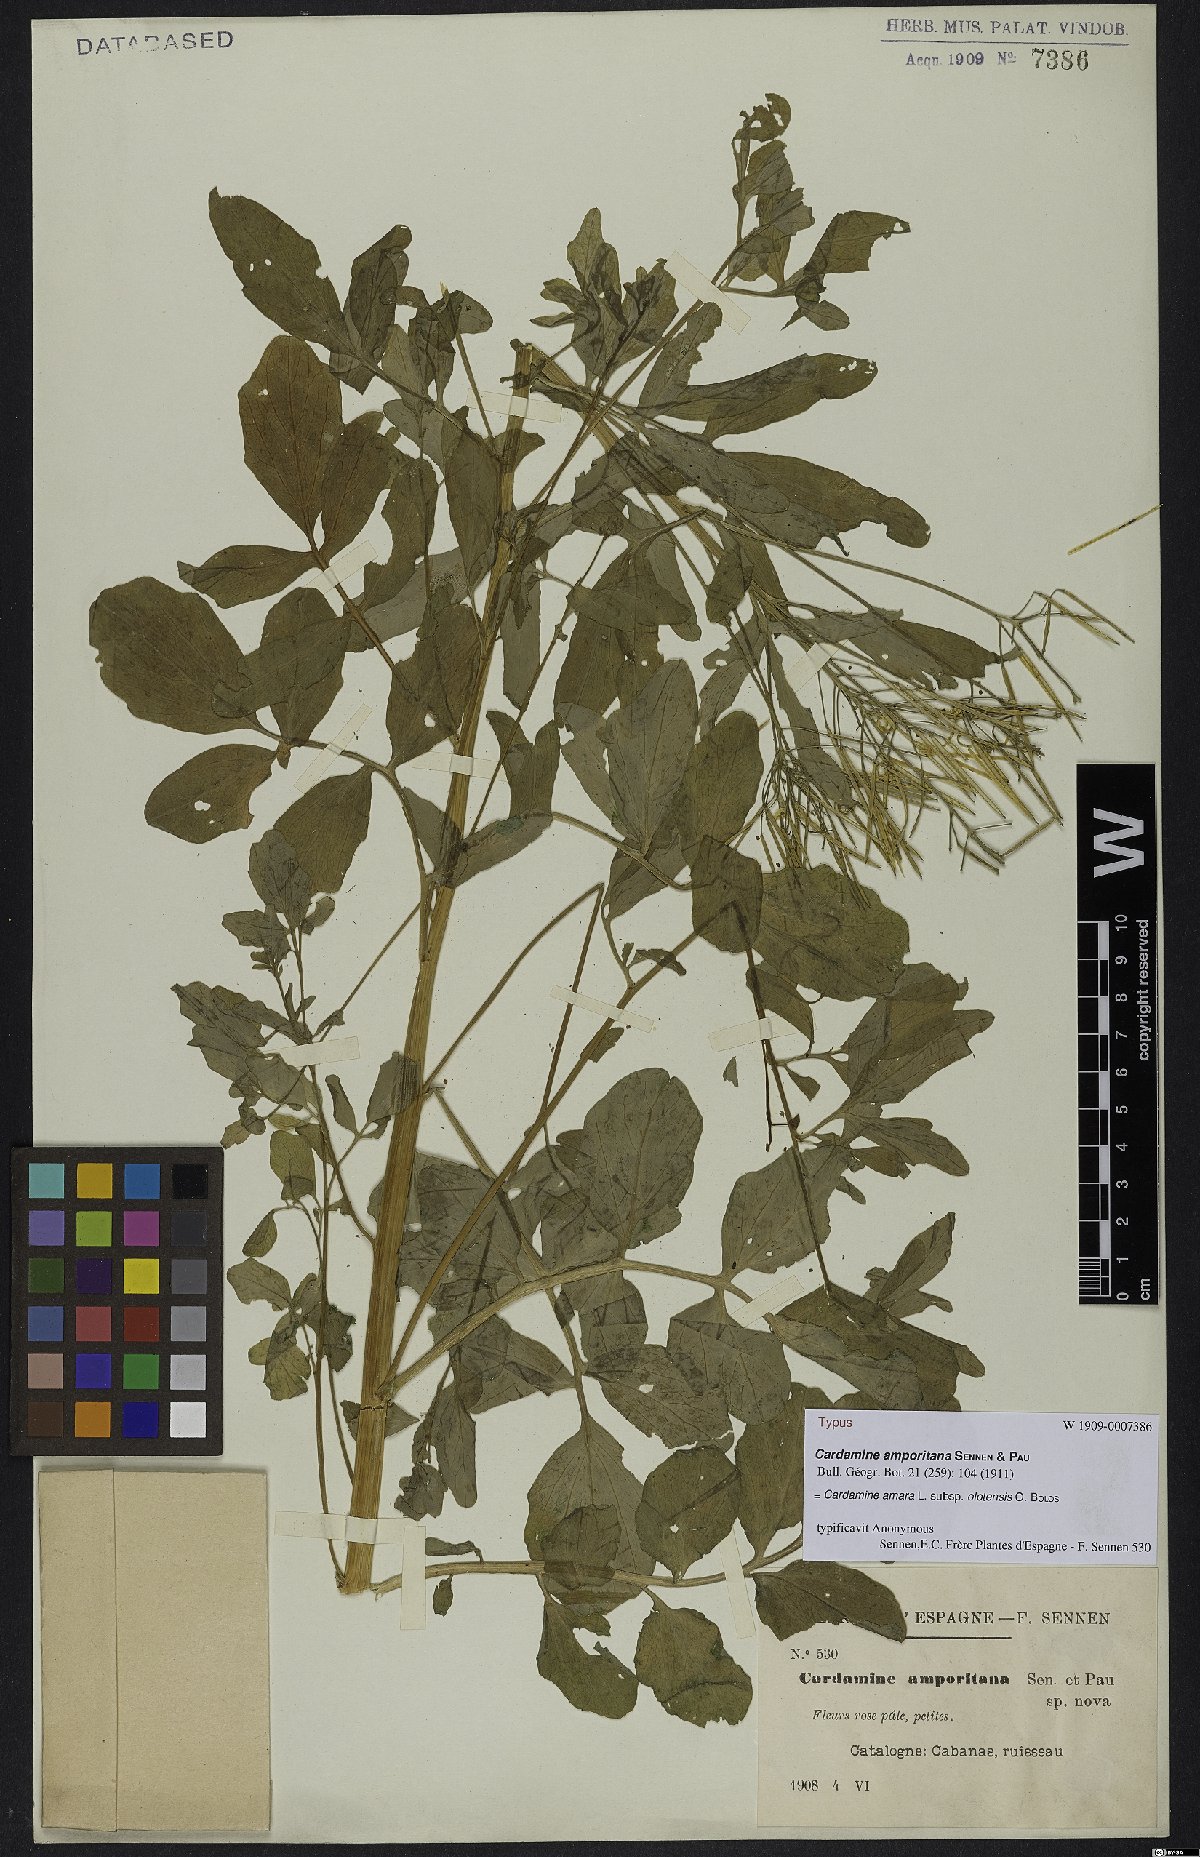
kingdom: Plantae
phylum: Tracheophyta
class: Magnoliopsida
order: Brassicales
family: Brassicaceae
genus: Cardamine
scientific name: Cardamine amara
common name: Large bitter-cress
